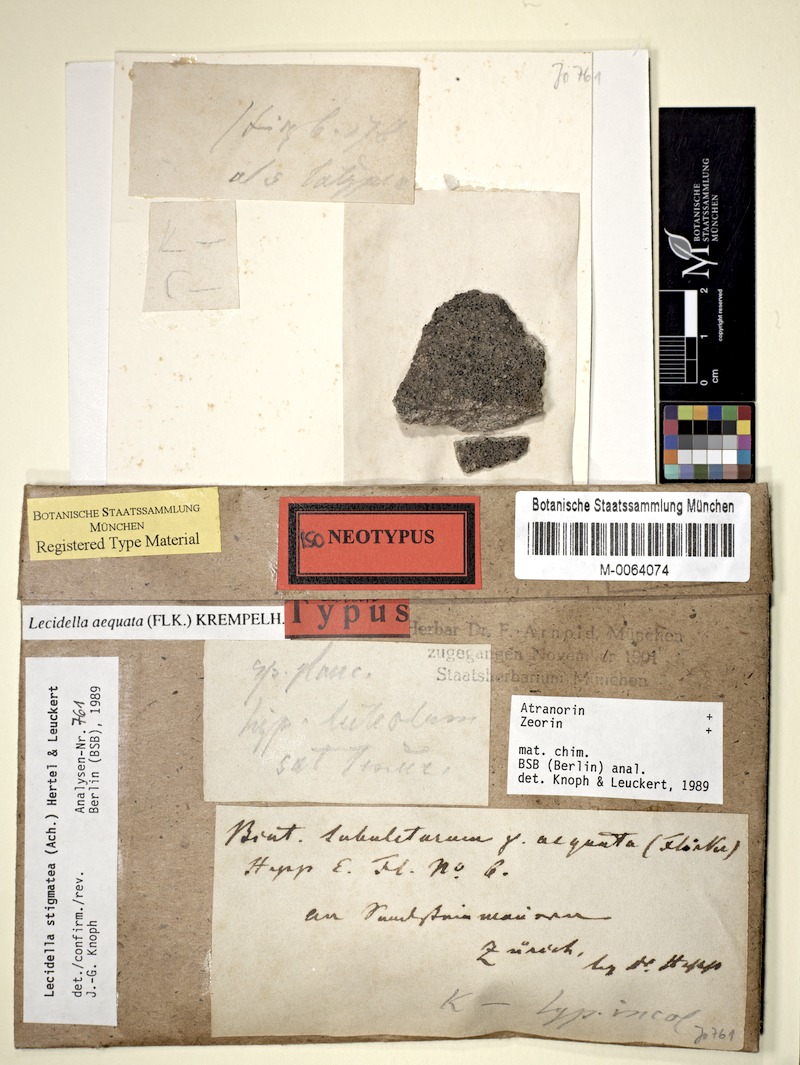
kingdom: Fungi
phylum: Ascomycota
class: Lecanoromycetes
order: Lecanorales
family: Lecanoraceae
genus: Lecidella
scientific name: Lecidella stigmatea
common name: Limestone disc lichen
